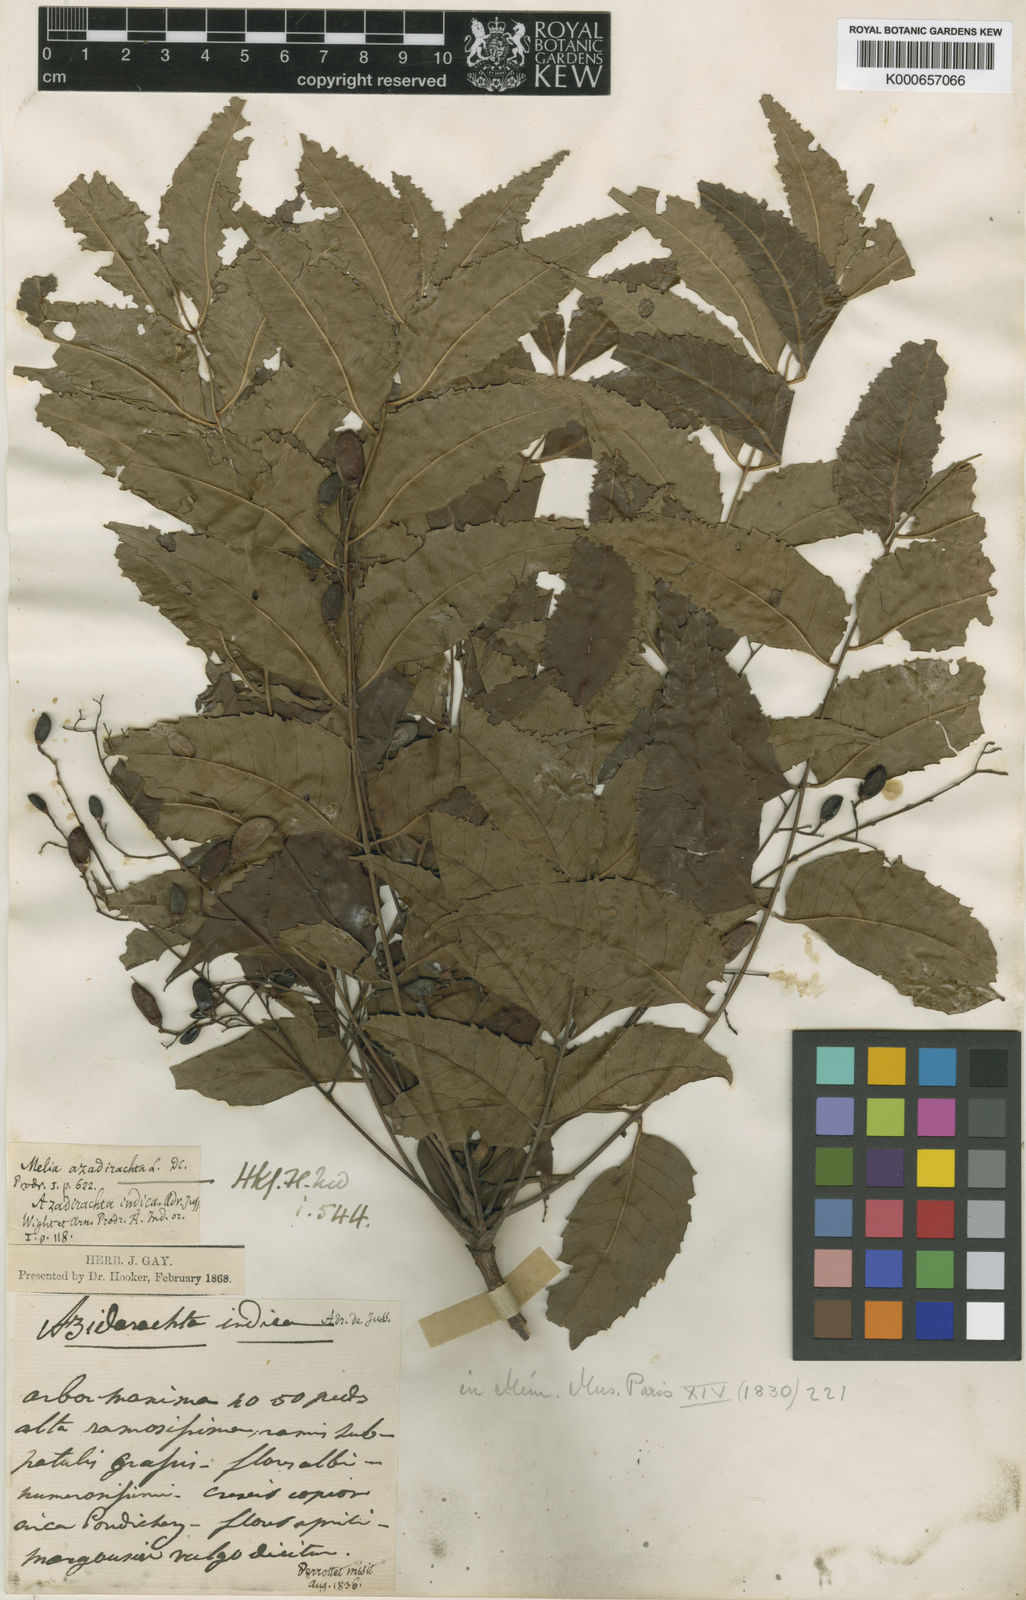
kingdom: Plantae
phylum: Tracheophyta
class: Magnoliopsida
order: Sapindales
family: Meliaceae
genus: Azadirachta
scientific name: Azadirachta indica
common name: Neem
